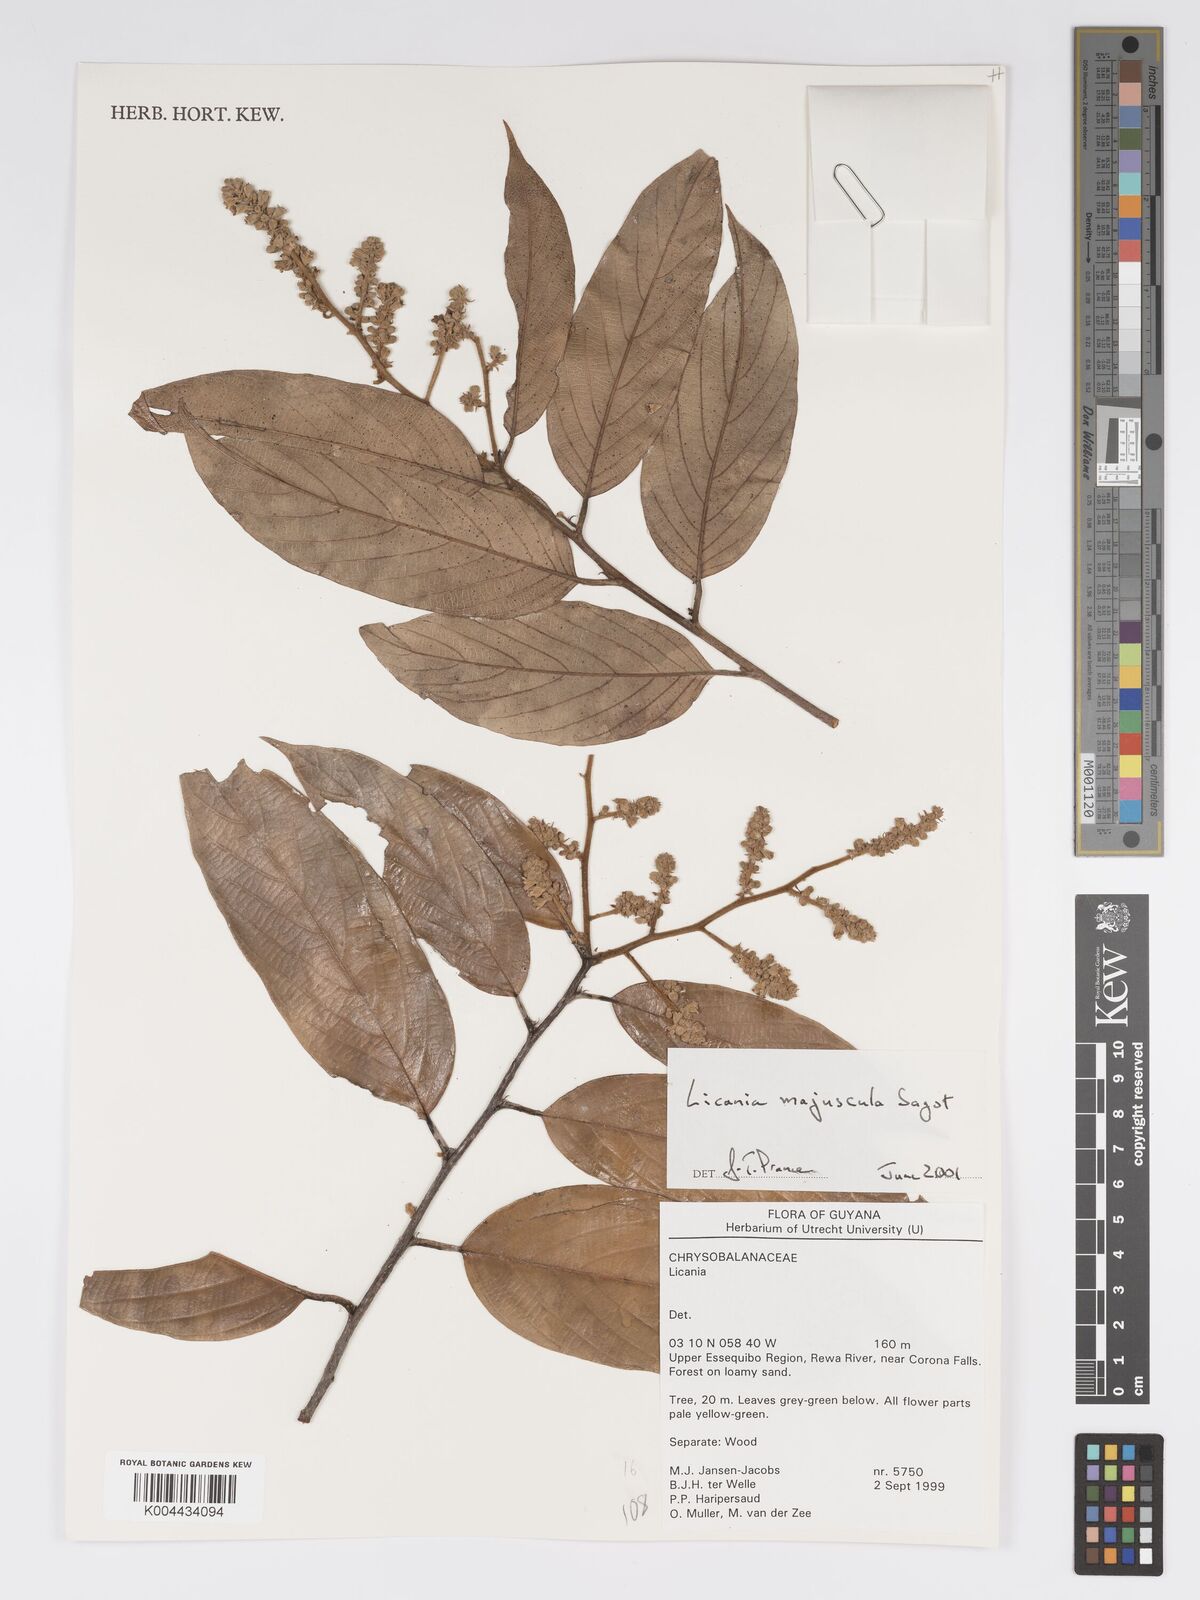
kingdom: Plantae
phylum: Tracheophyta
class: Magnoliopsida
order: Malpighiales
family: Chrysobalanaceae
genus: Licania
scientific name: Licania jimenezii
